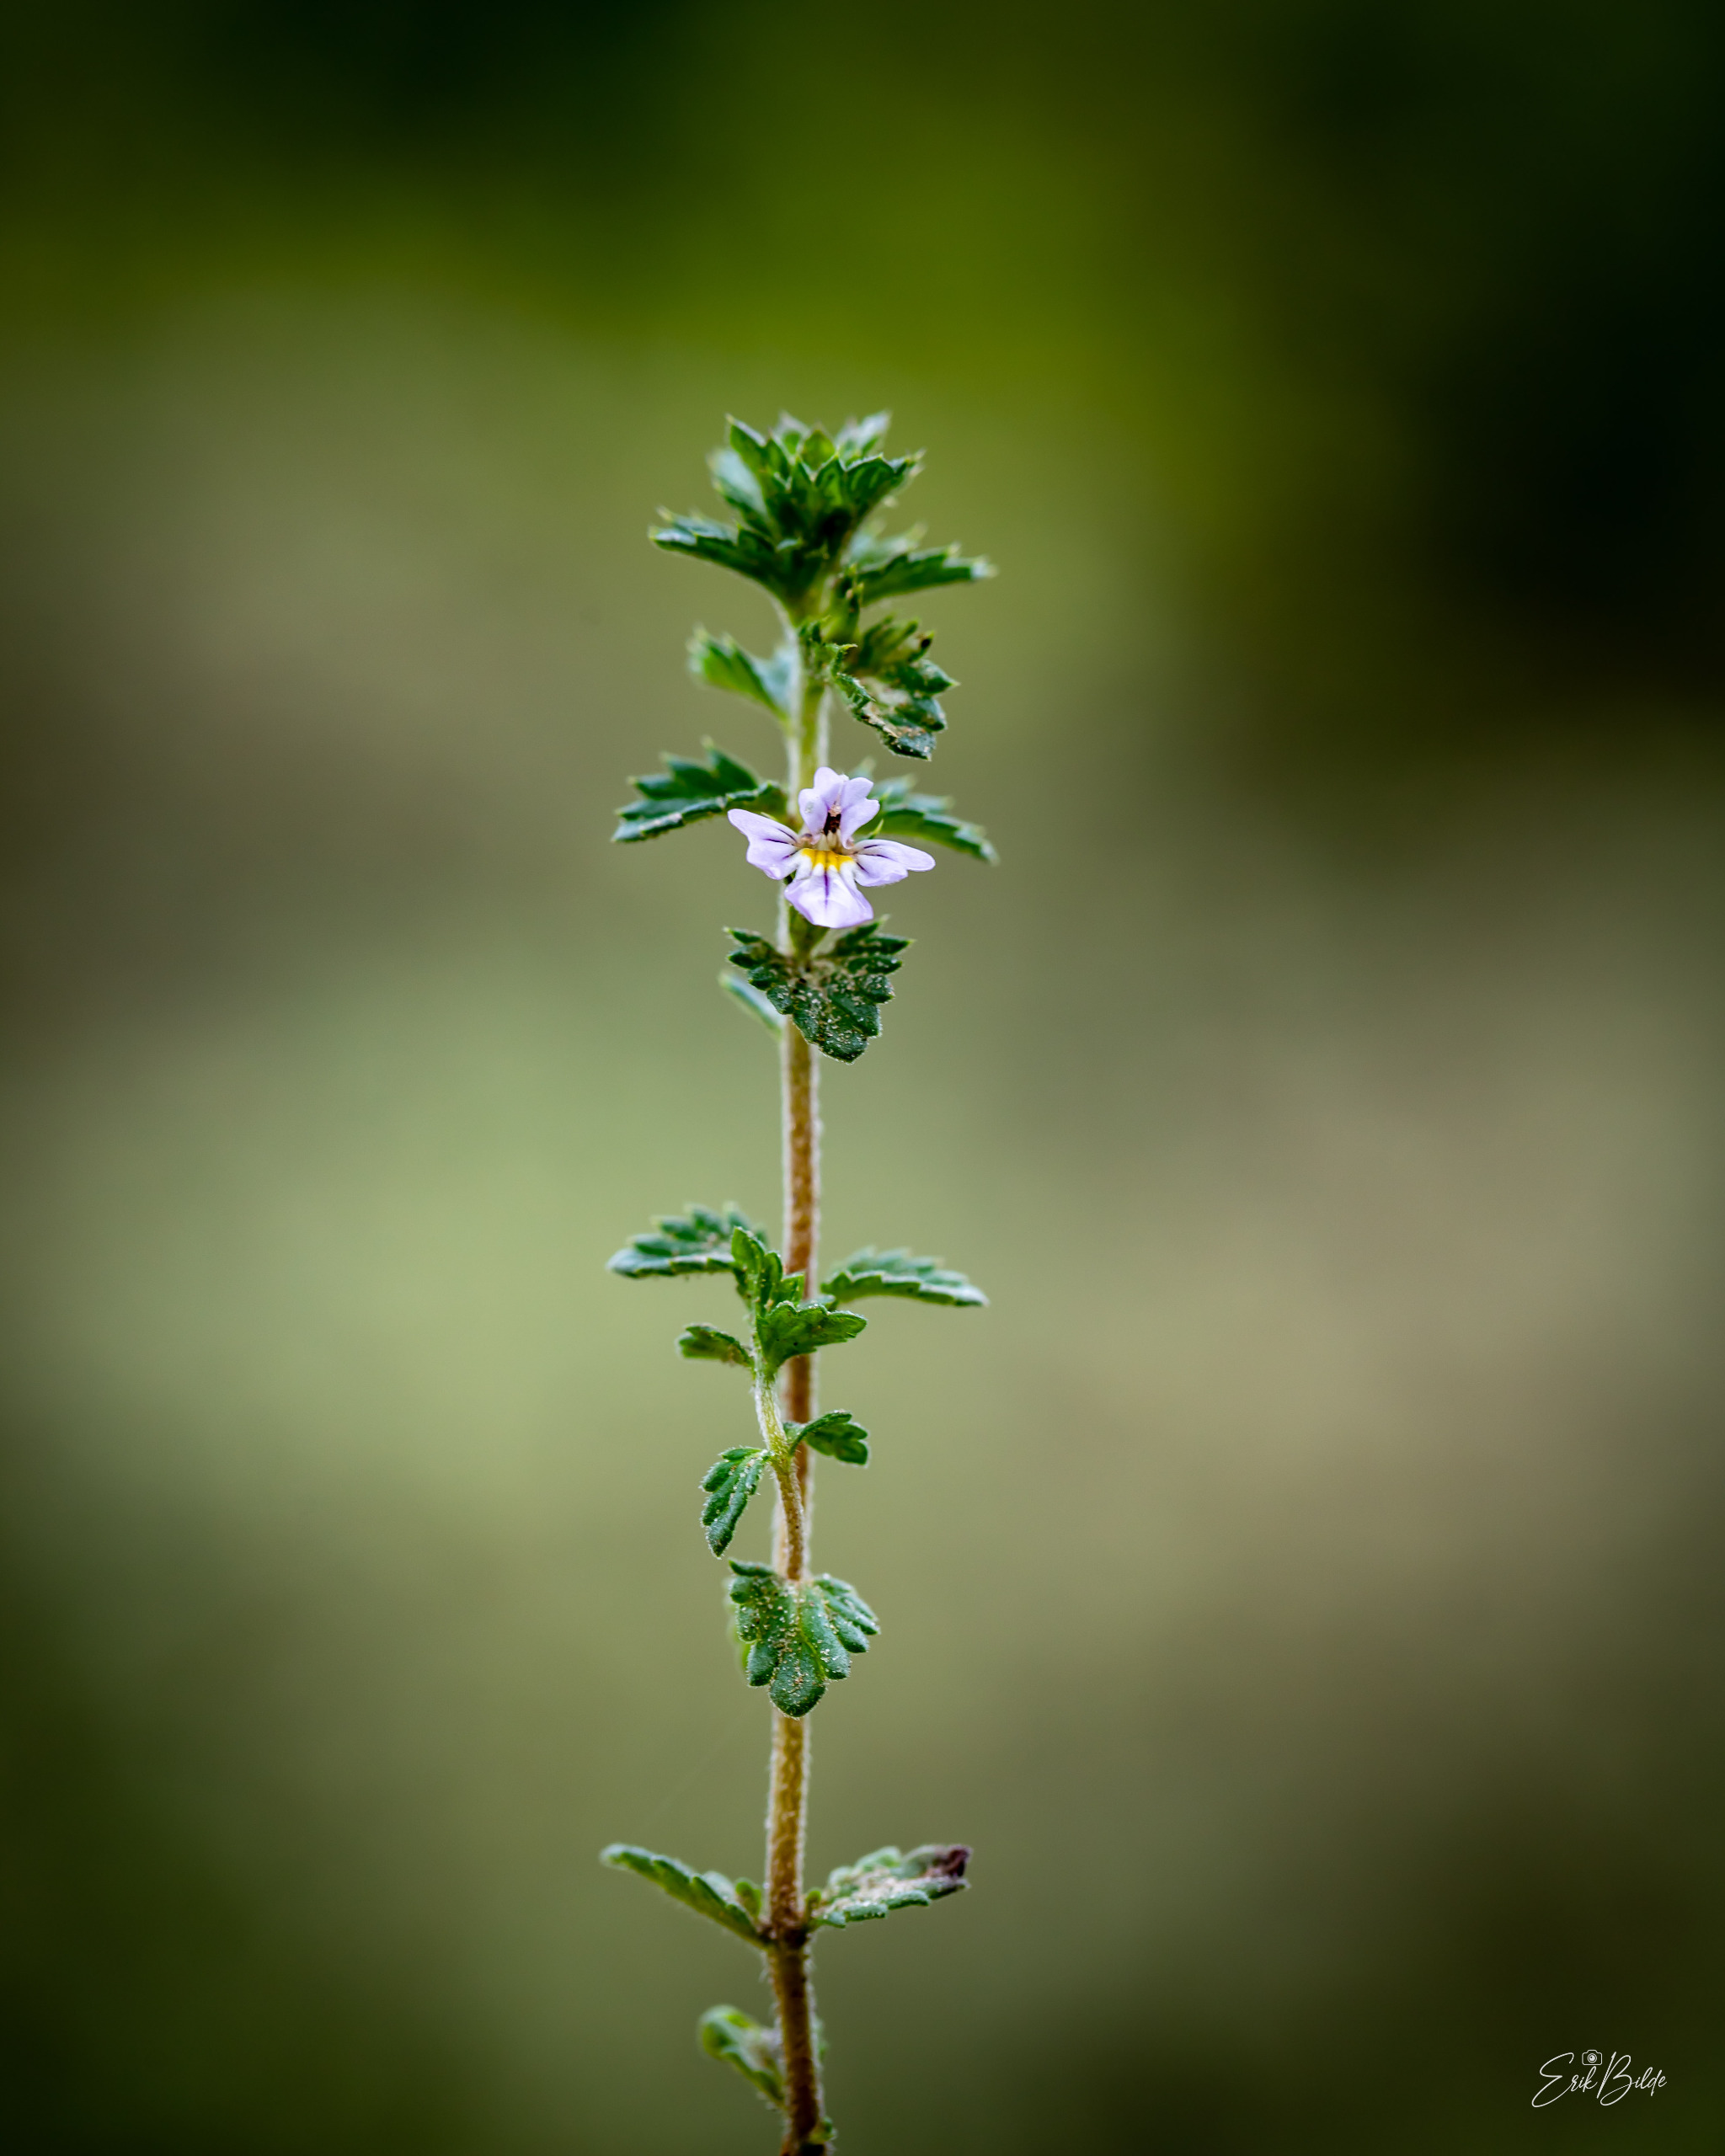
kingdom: Plantae
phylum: Tracheophyta
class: Magnoliopsida
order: Lamiales
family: Orobanchaceae
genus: Euphrasia
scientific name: Euphrasia nemorosa
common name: Kort øjentrøst
